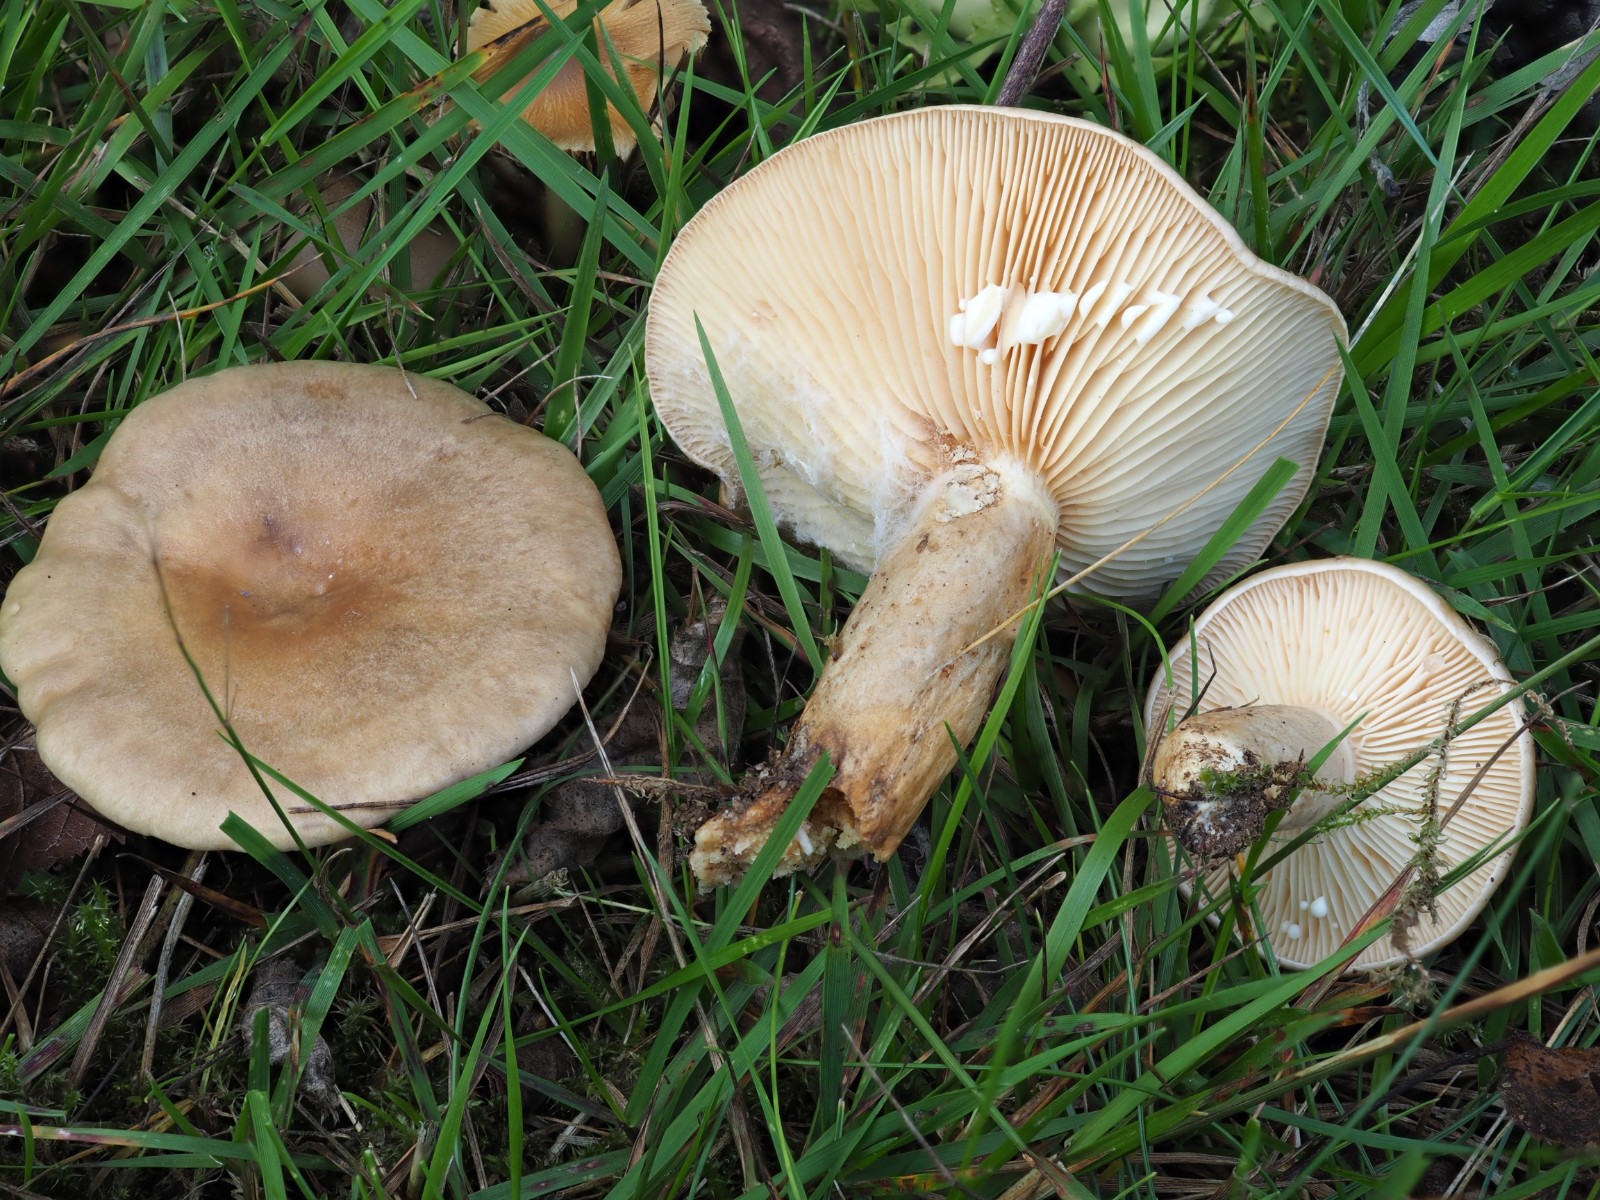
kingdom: Fungi
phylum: Basidiomycota
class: Agaricomycetes
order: Russulales
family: Russulaceae
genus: Lactarius
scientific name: Lactarius pyrogalus
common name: hassel-mælkehat
